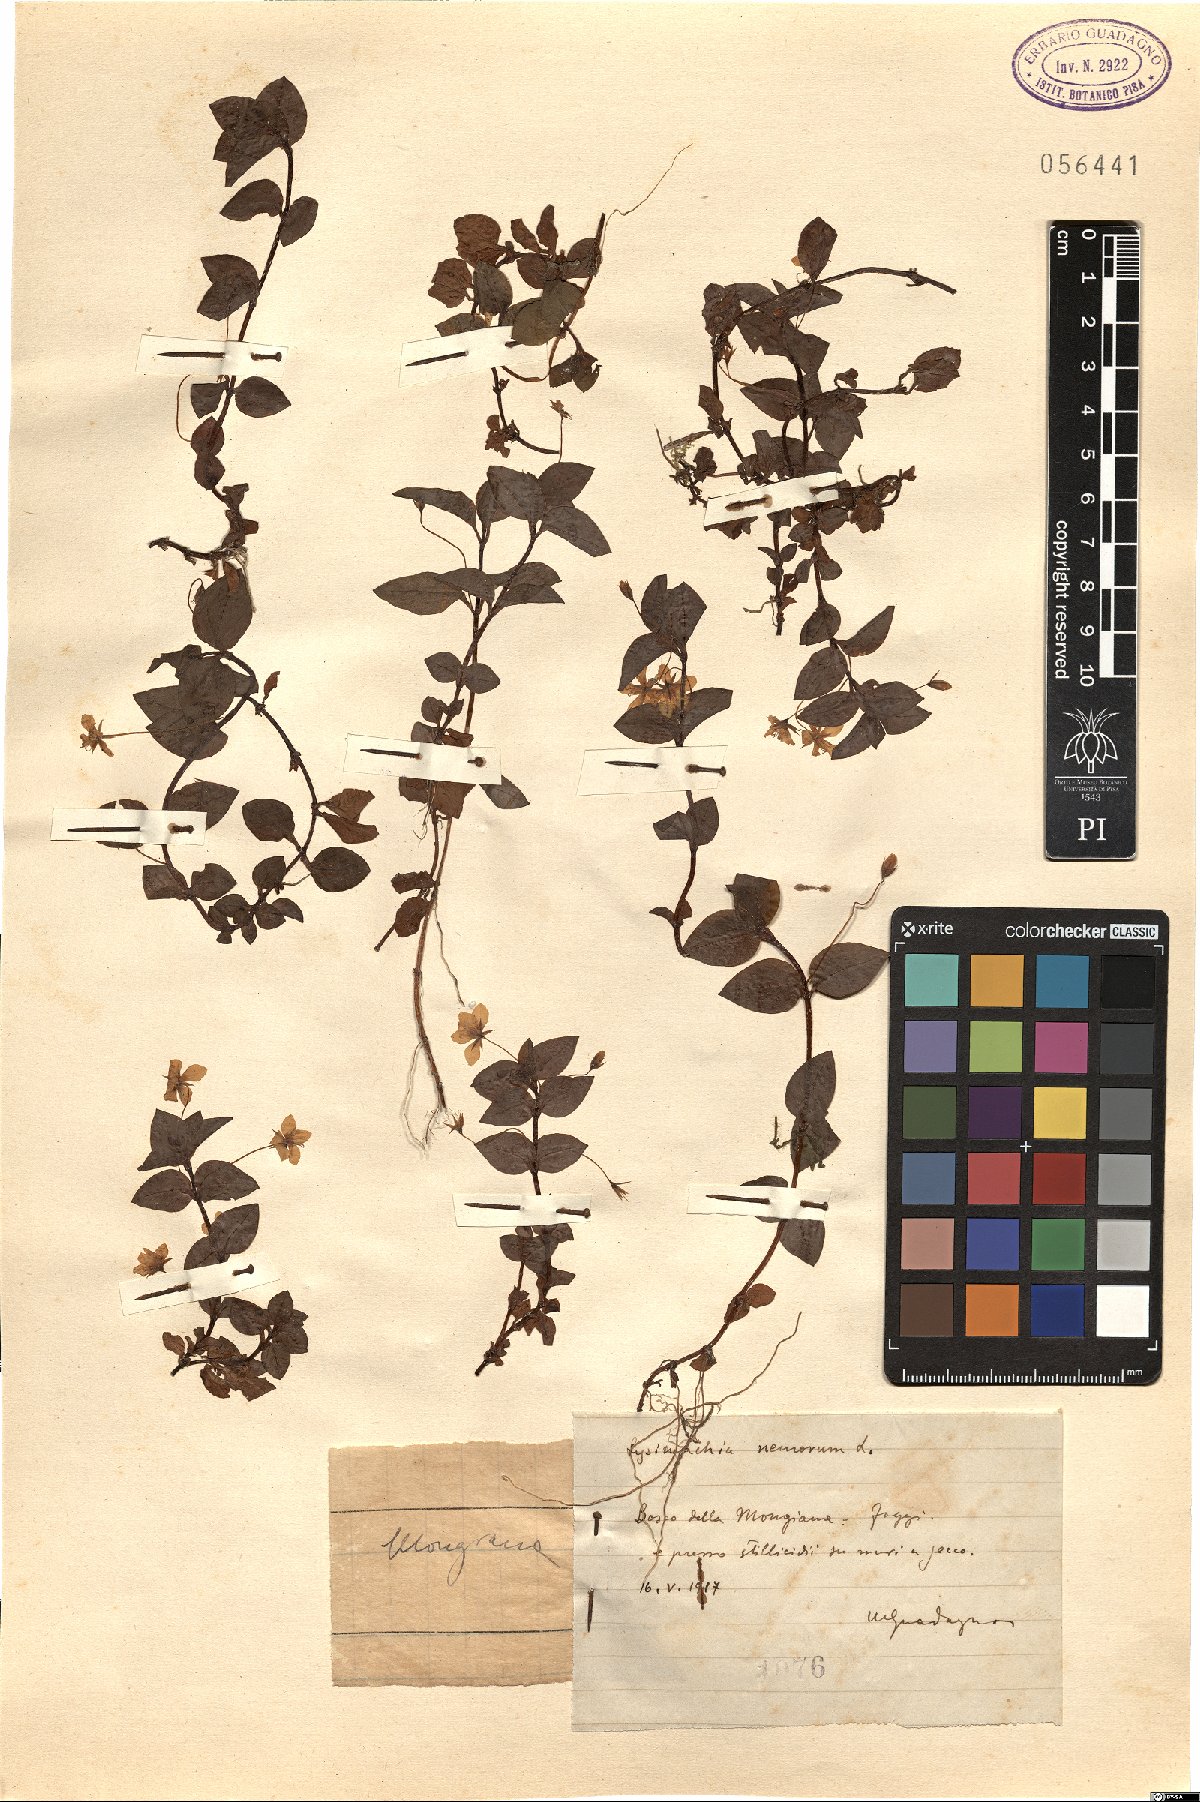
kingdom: Plantae
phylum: Tracheophyta
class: Magnoliopsida
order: Ericales
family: Primulaceae
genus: Lysimachia
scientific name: Lysimachia nemorum
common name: Yellow pimpernel
